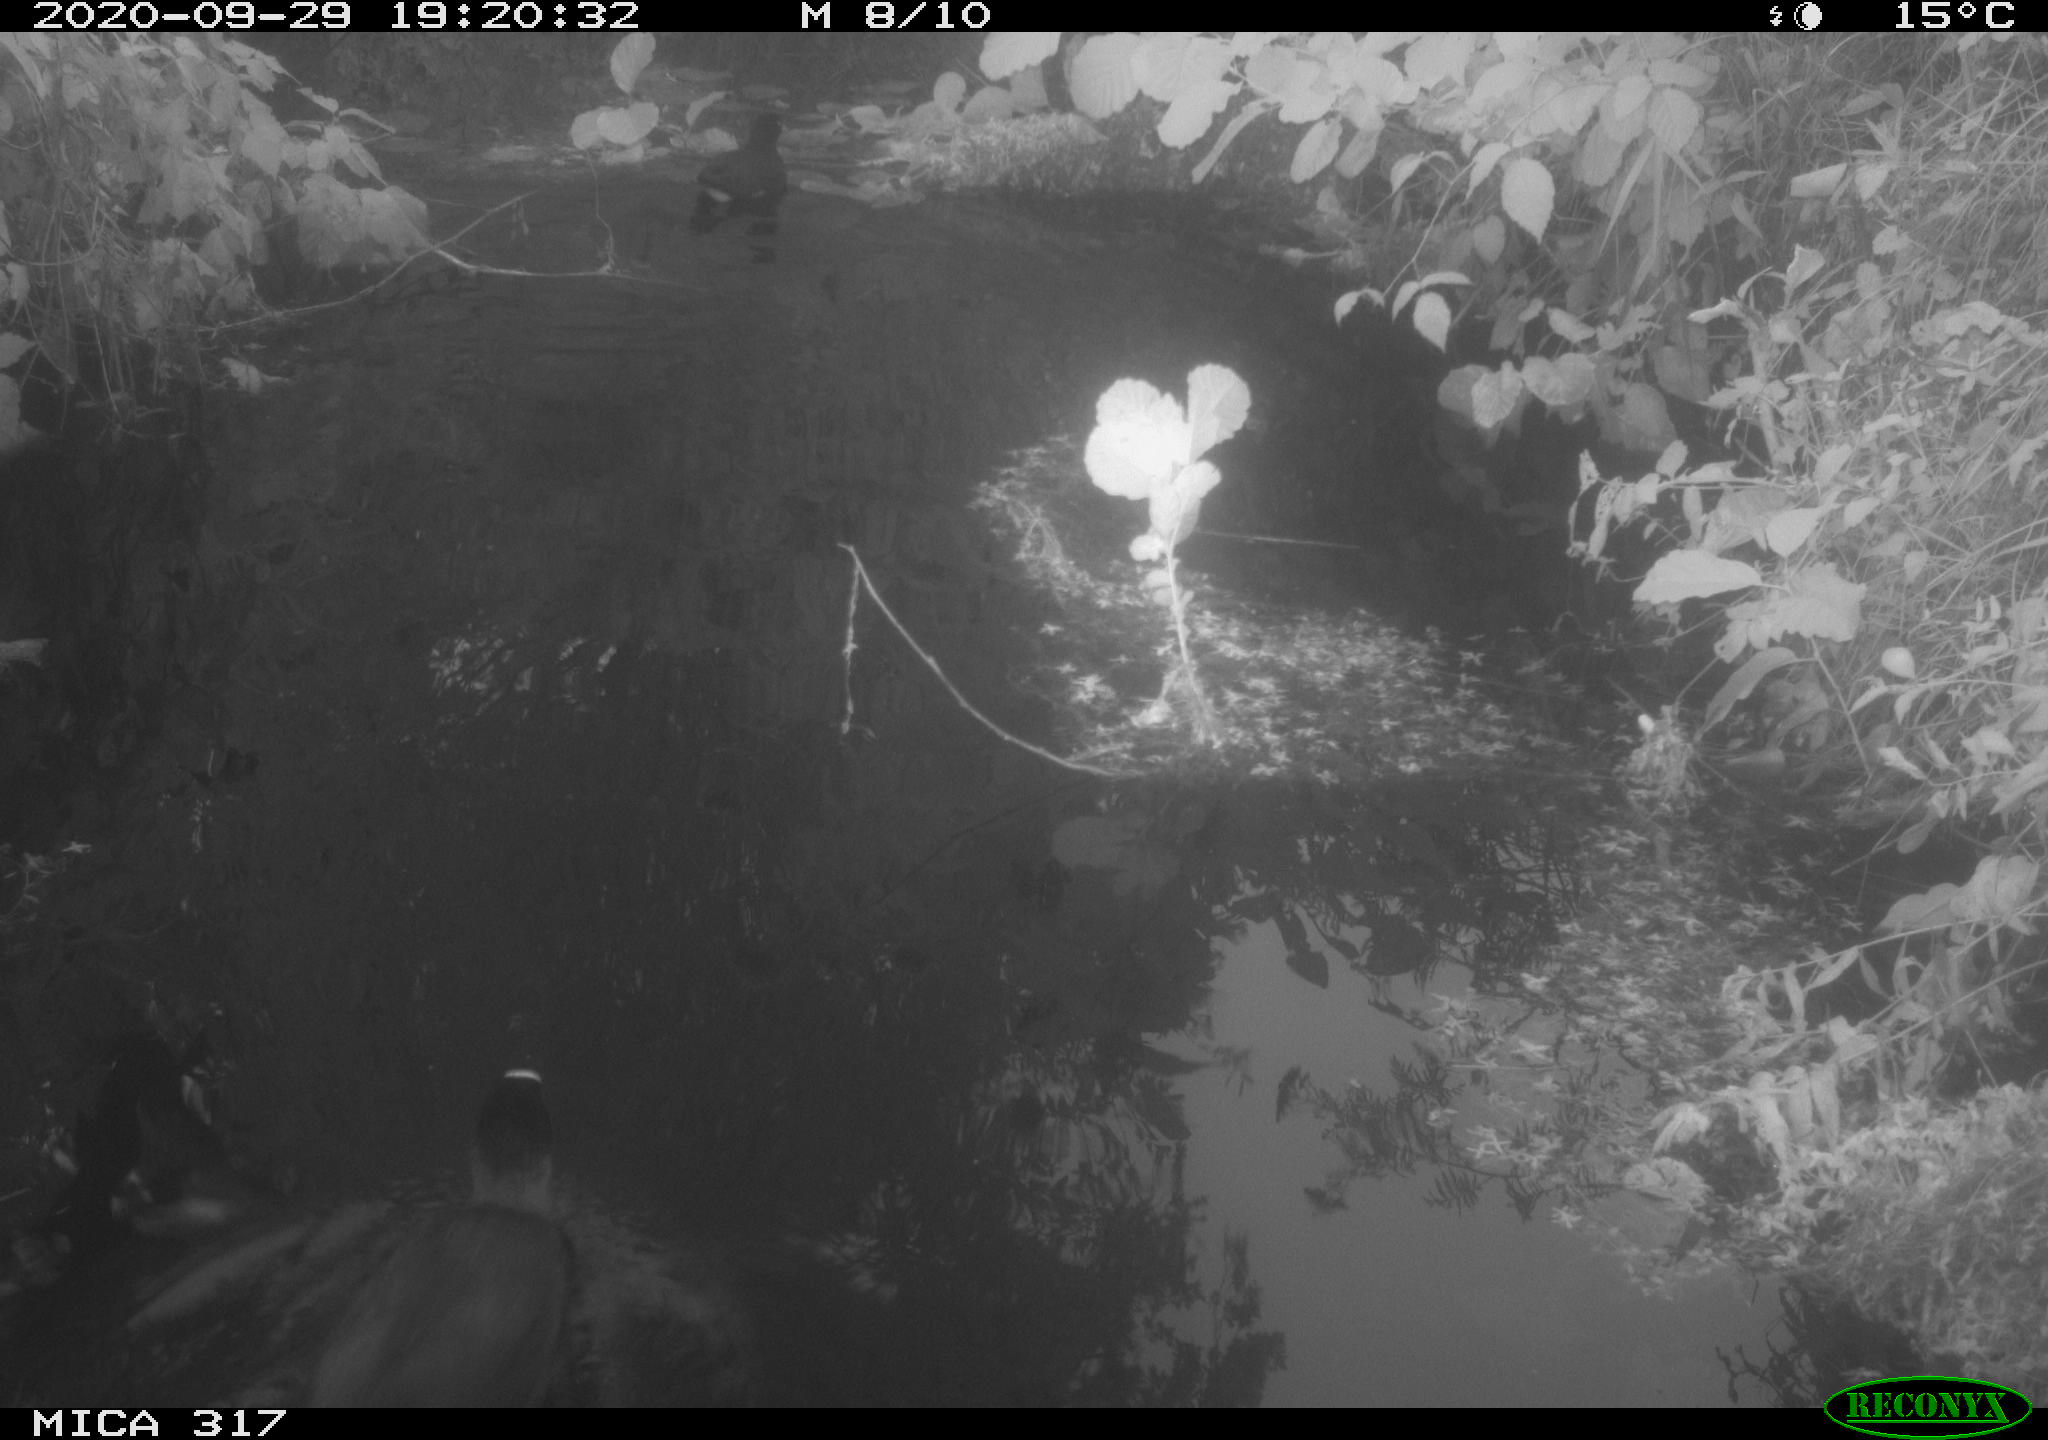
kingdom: Animalia
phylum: Chordata
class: Aves
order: Gruiformes
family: Rallidae
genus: Fulica
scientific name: Fulica atra
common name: Eurasian coot
